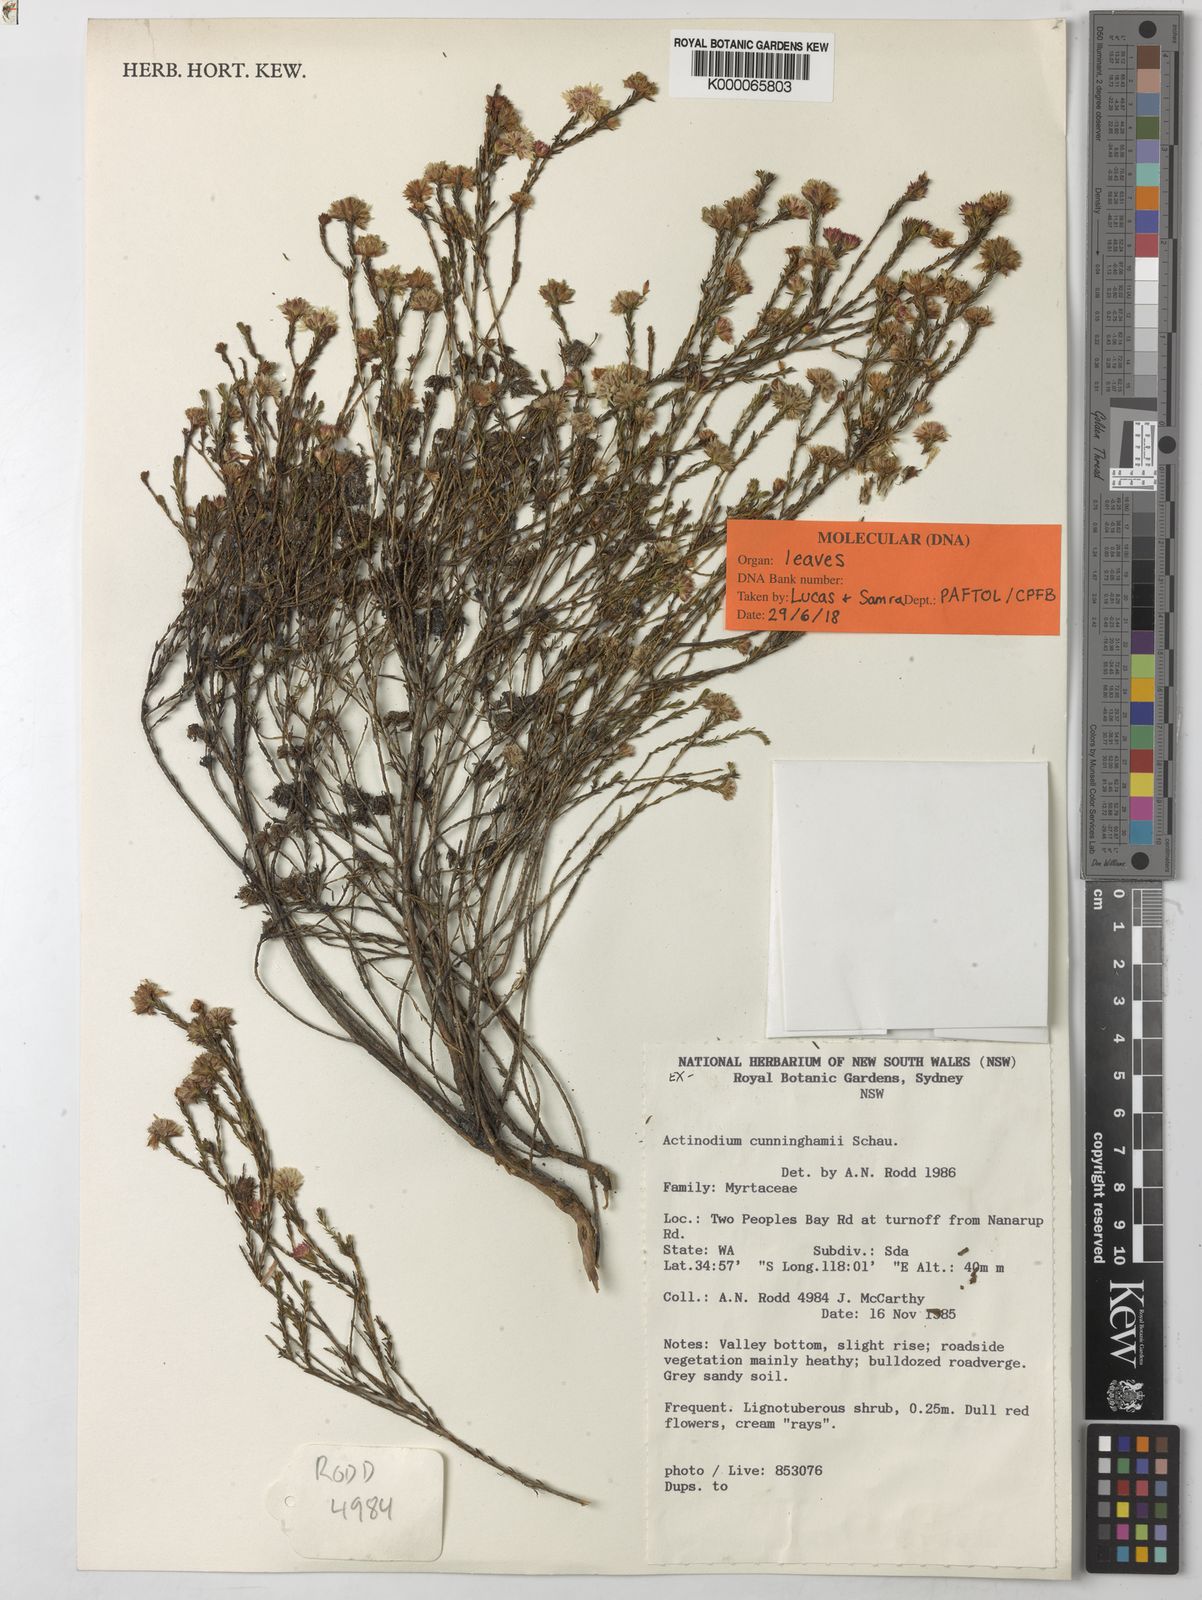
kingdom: Plantae
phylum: Tracheophyta
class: Magnoliopsida
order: Myrtales
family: Myrtaceae
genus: Actinodium
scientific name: Actinodium
